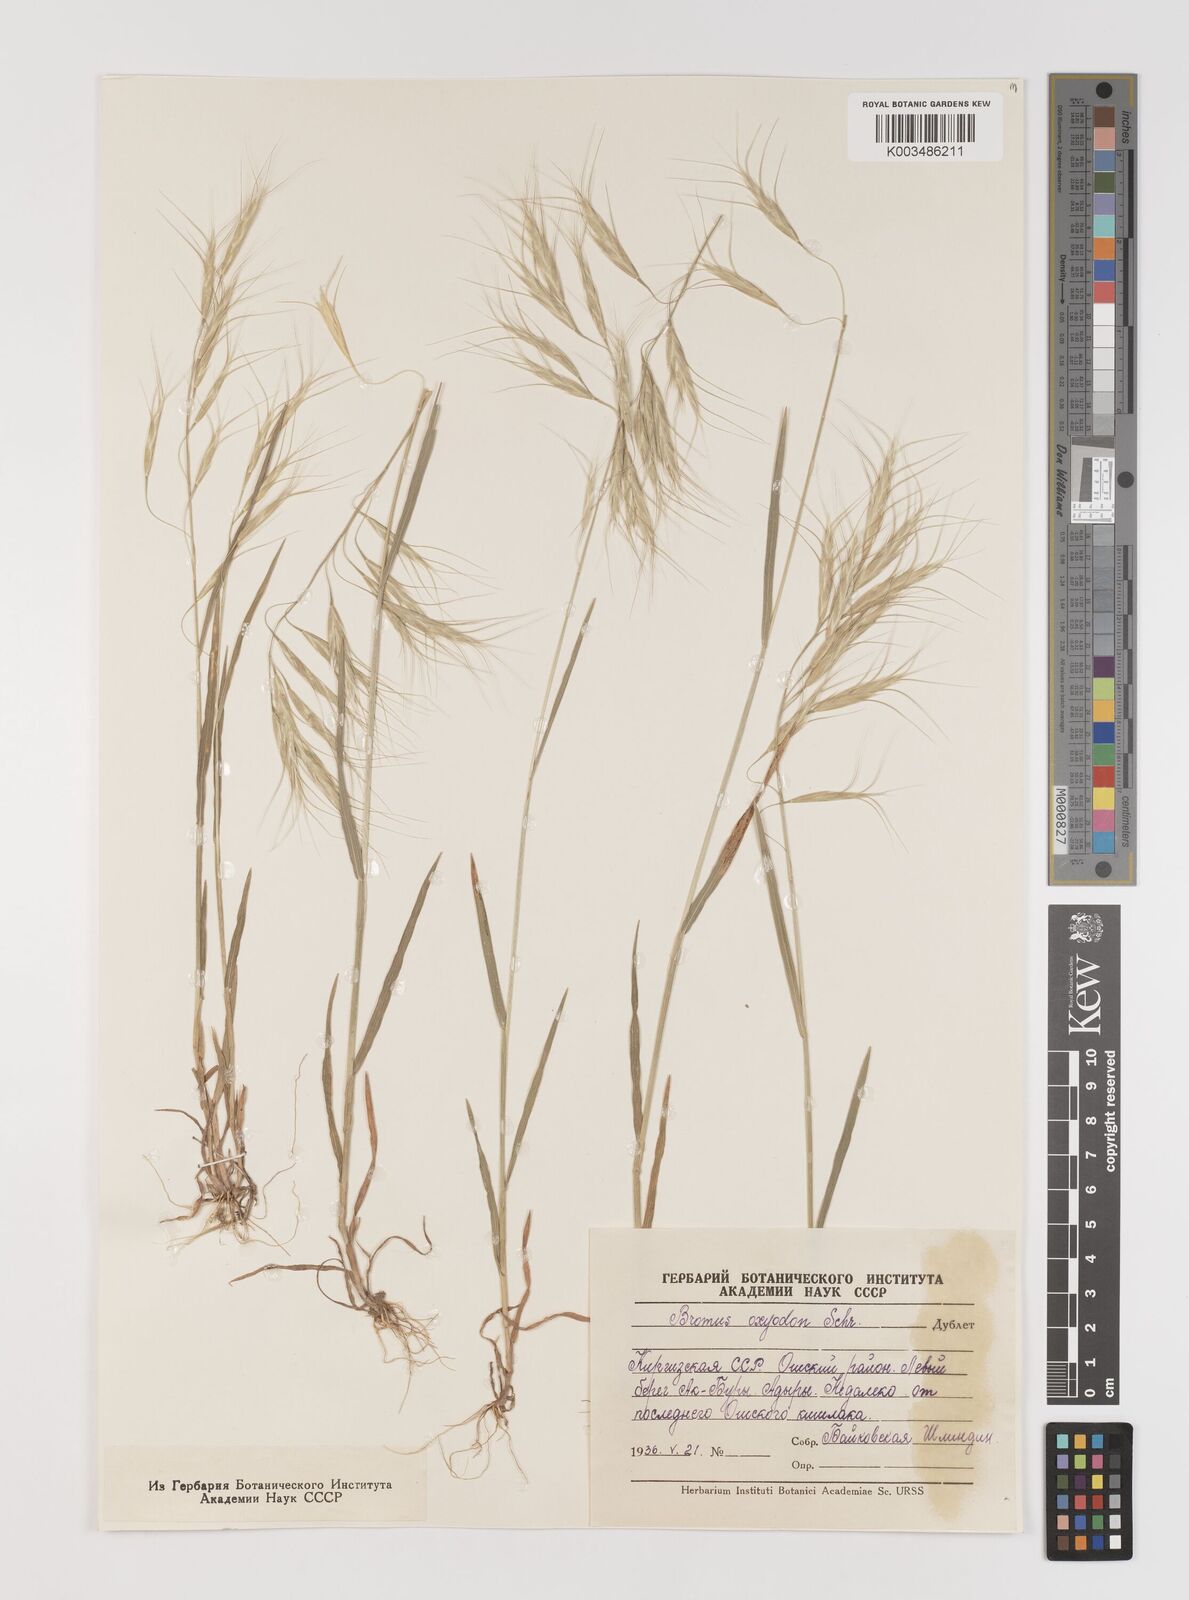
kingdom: Plantae
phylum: Tracheophyta
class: Liliopsida
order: Poales
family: Poaceae
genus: Bromus
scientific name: Bromus oxyodon
